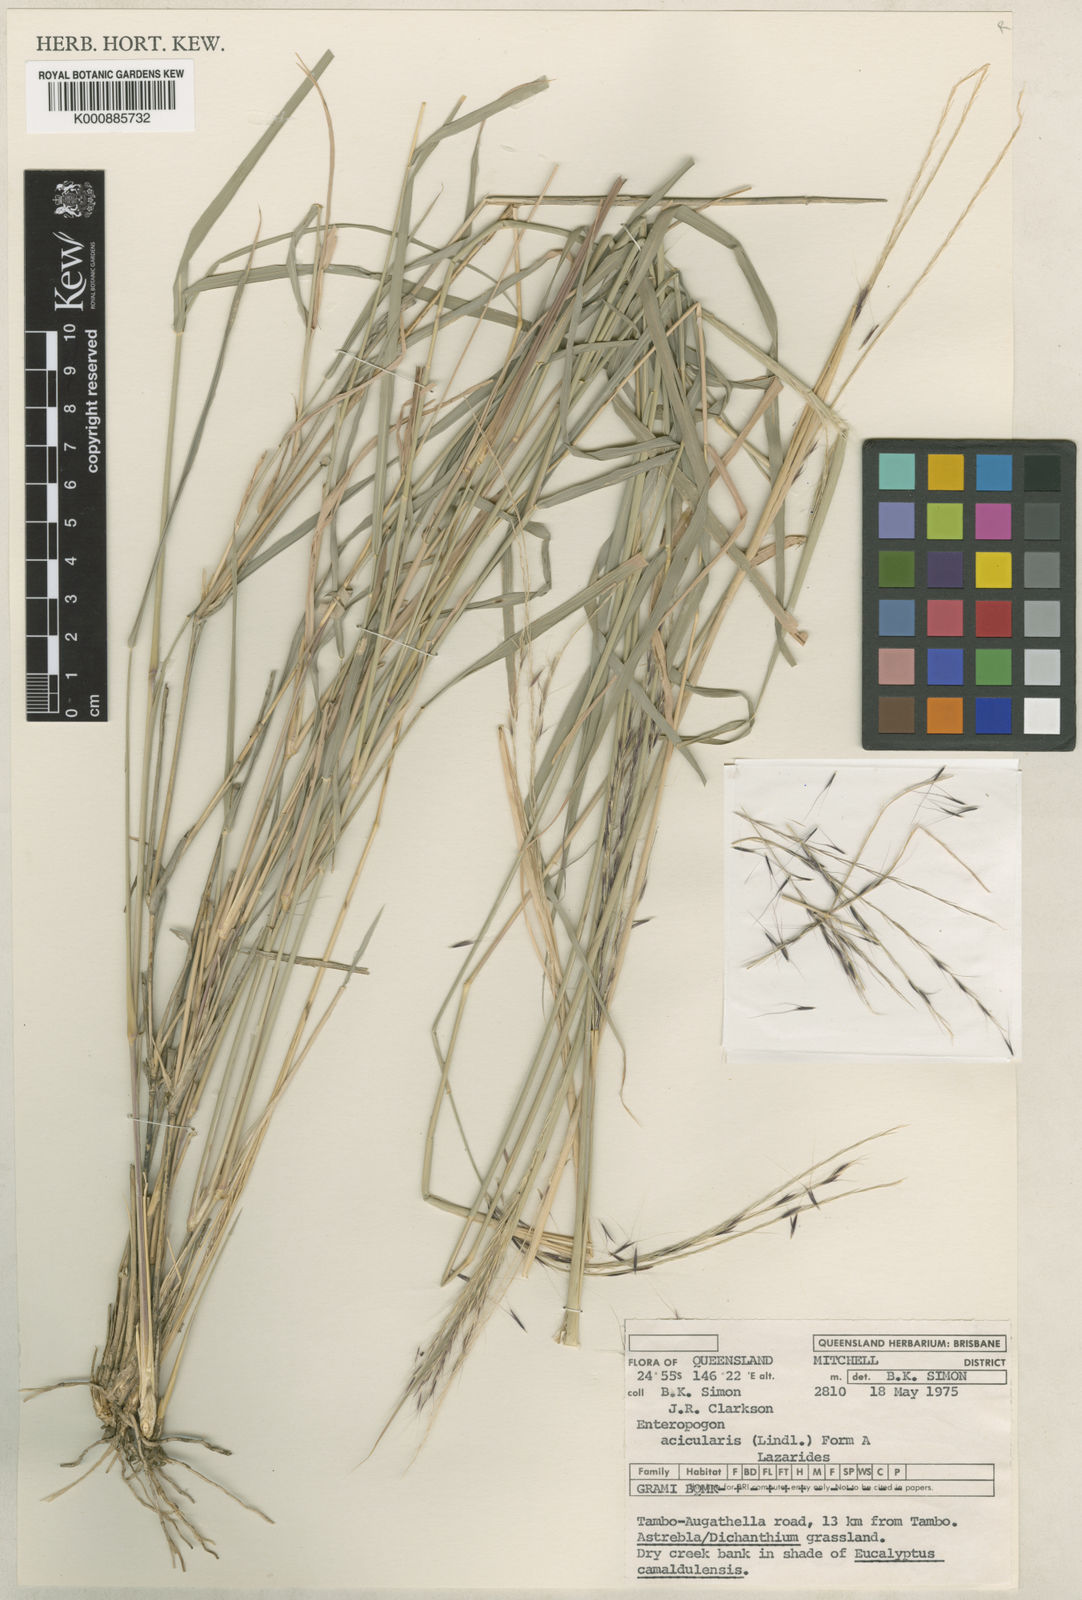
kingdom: Plantae
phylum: Tracheophyta
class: Liliopsida
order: Poales
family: Poaceae
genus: Enteropogon
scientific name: Enteropogon ramosus
